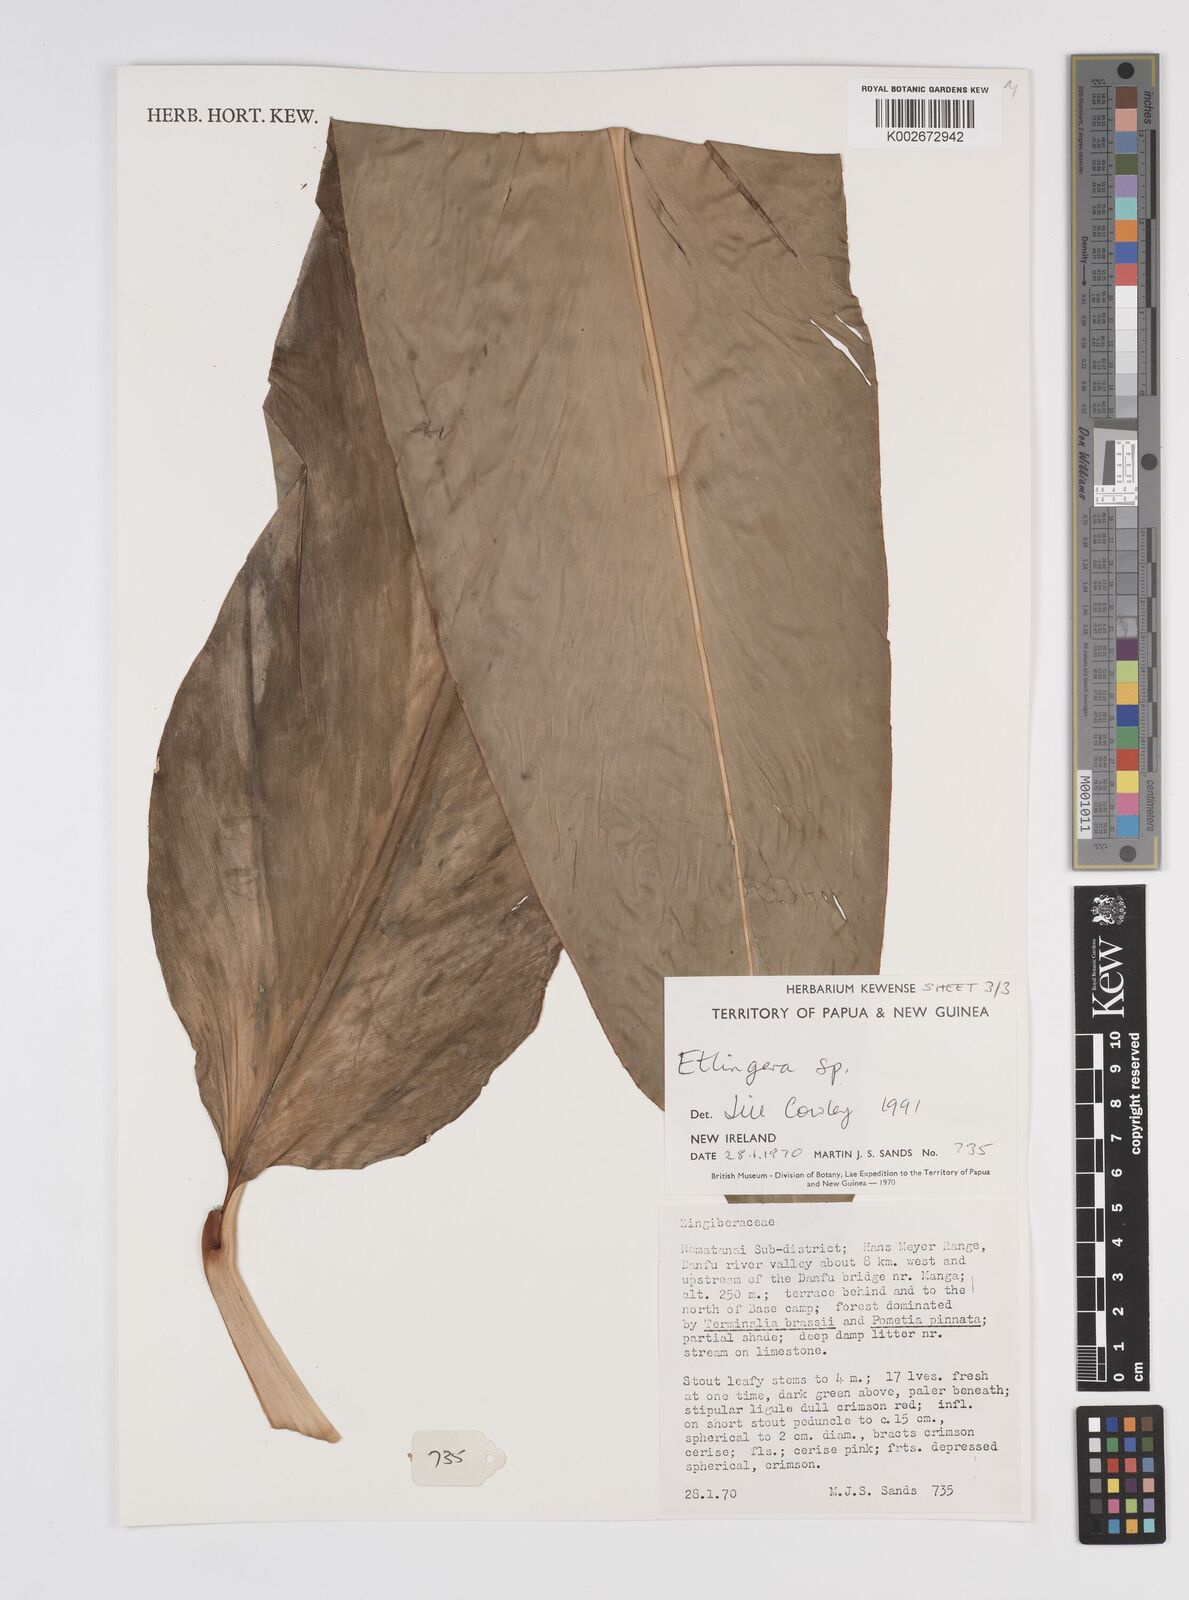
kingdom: Plantae
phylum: Tracheophyta
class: Liliopsida
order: Zingiberales
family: Zingiberaceae
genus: Etlingera
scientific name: Etlingera
